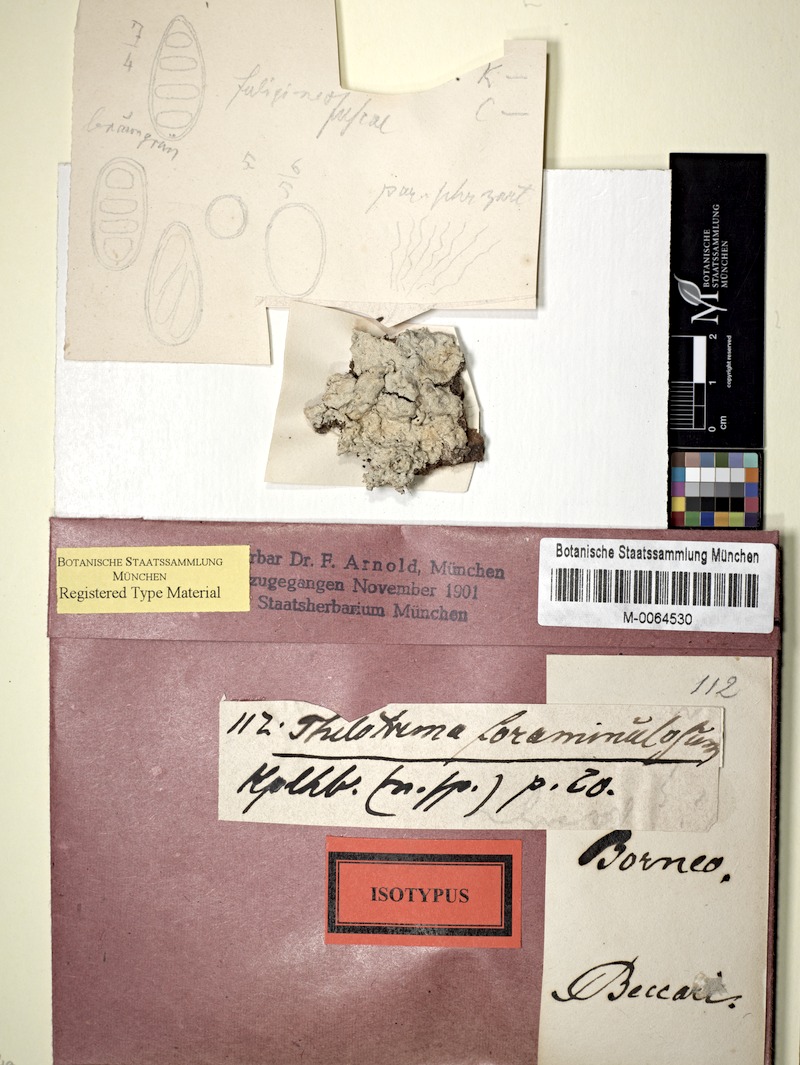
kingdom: Fungi
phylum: Ascomycota
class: Lecanoromycetes
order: Ostropales
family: Graphidaceae
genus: Sanguinotrema
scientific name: Sanguinotrema wightii
